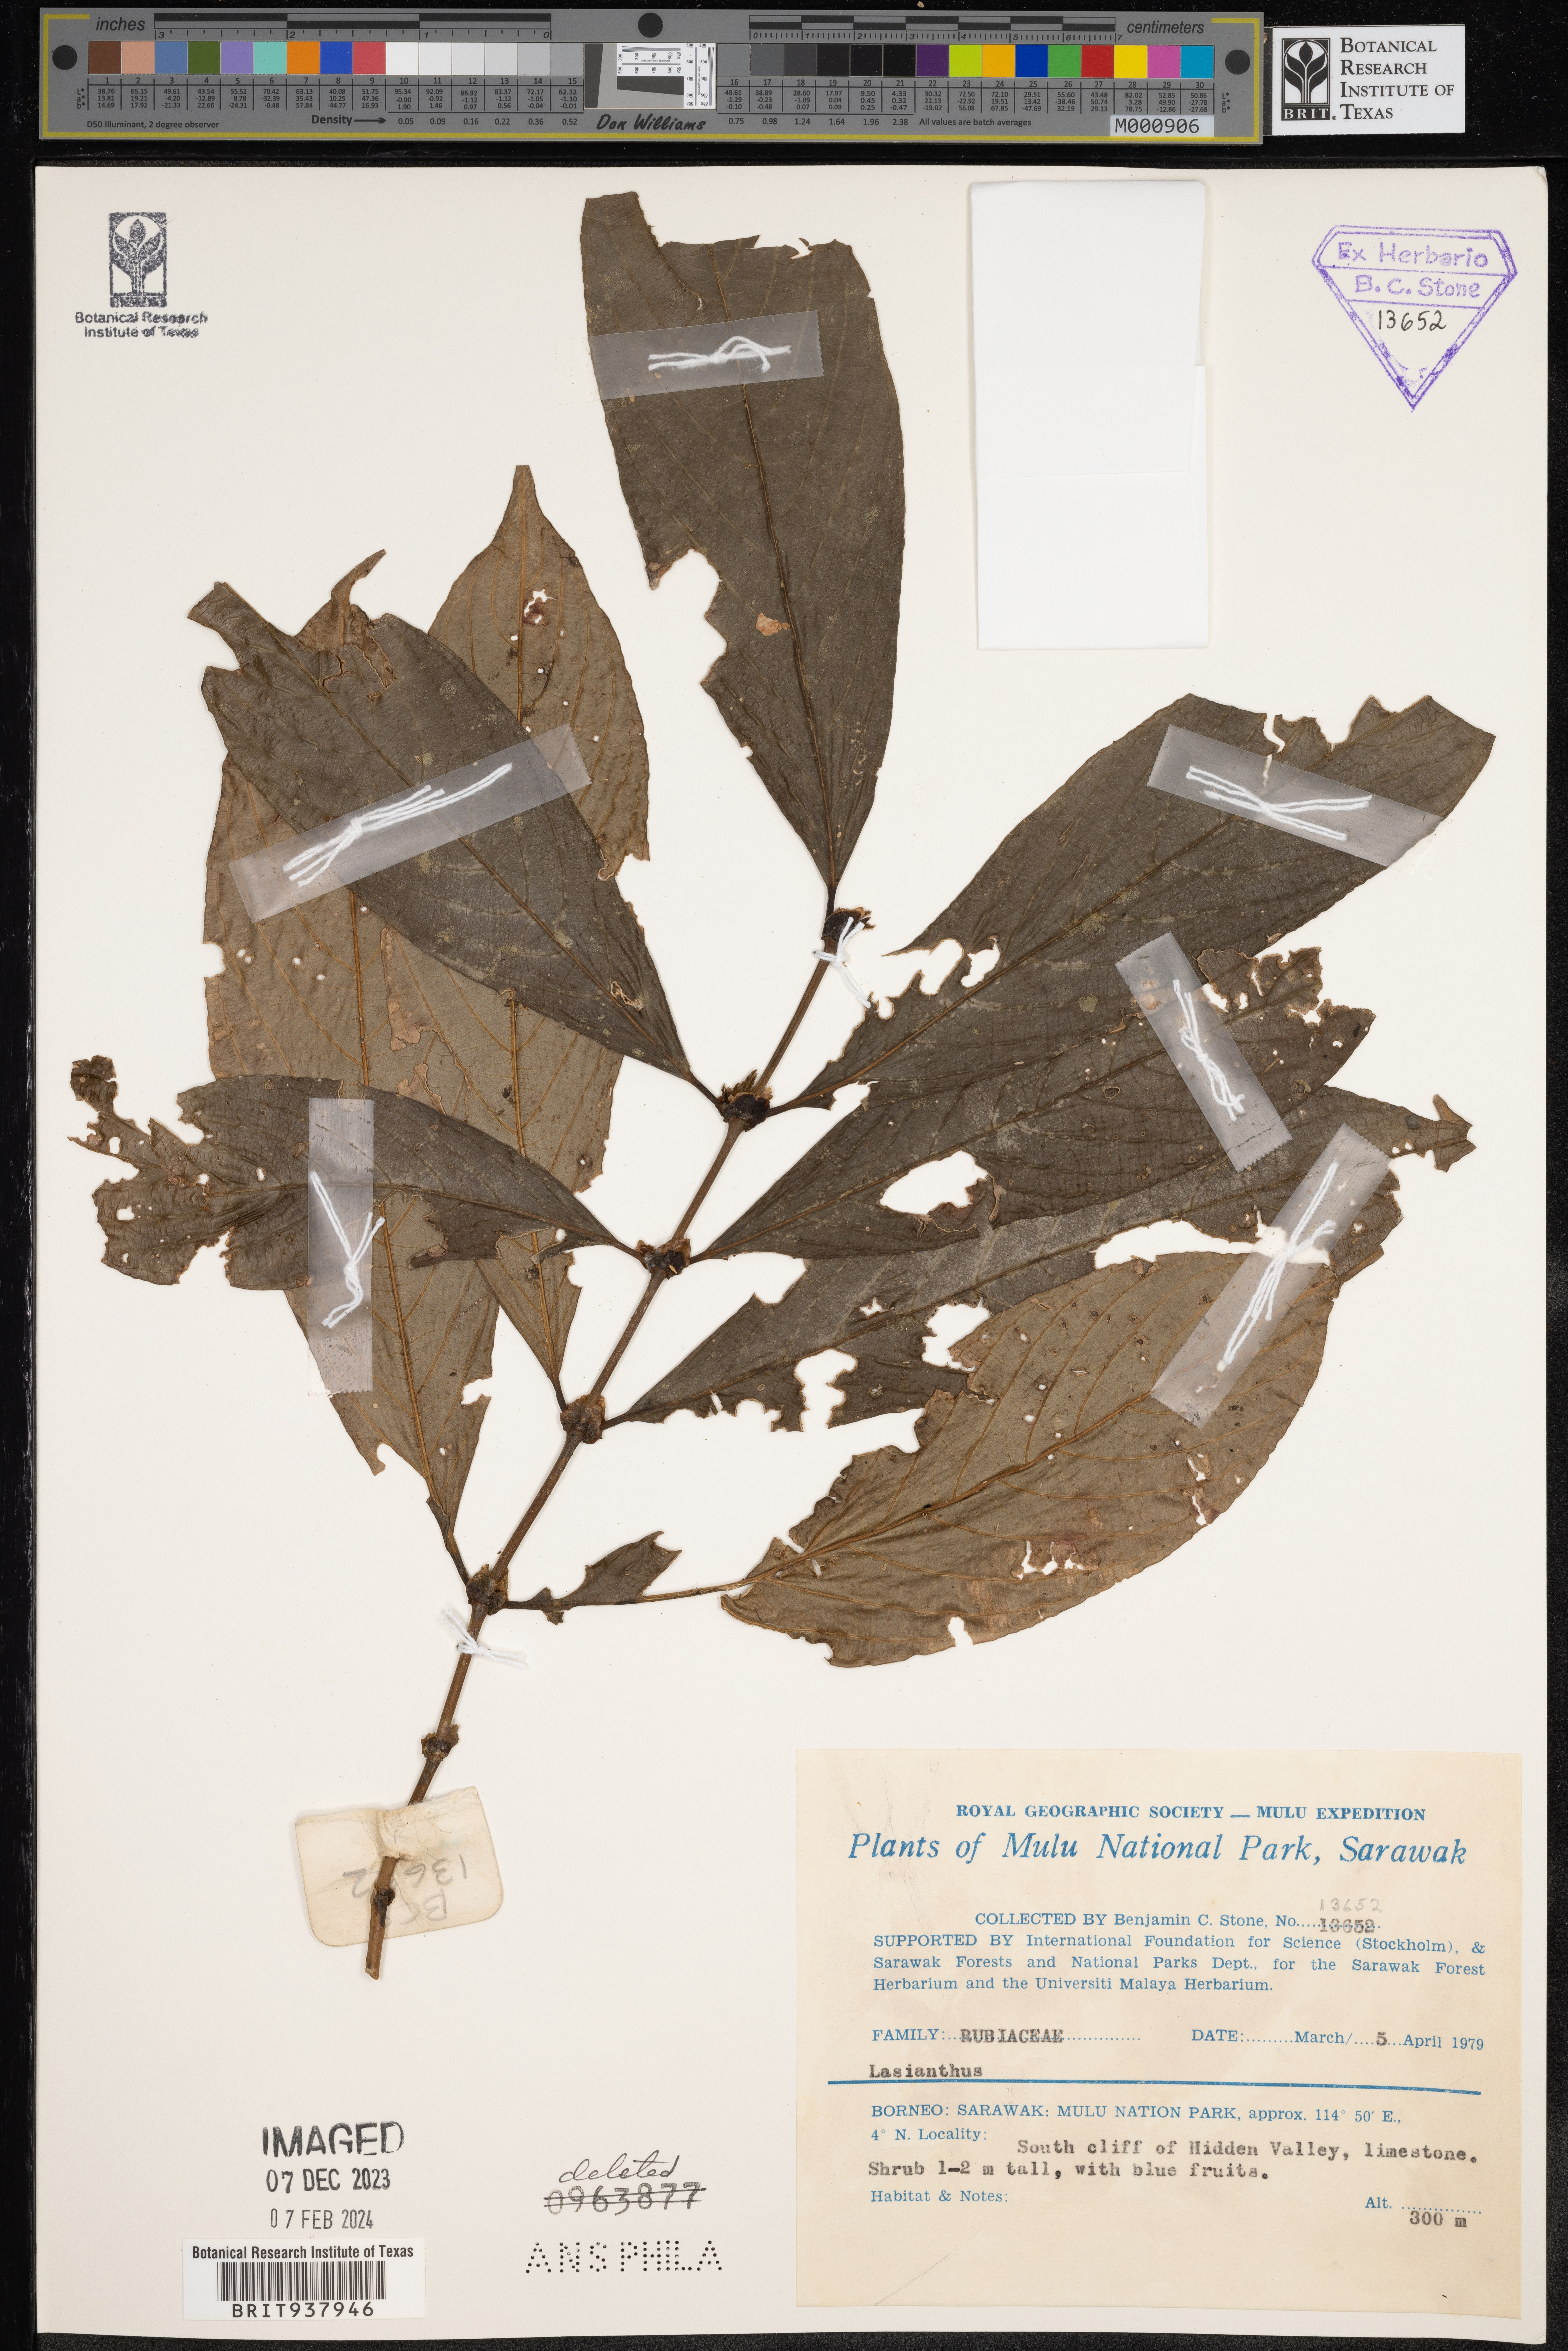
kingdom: Plantae
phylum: Tracheophyta
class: Magnoliopsida
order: Gentianales
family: Rubiaceae
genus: Lasianthus
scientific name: Lasianthus
